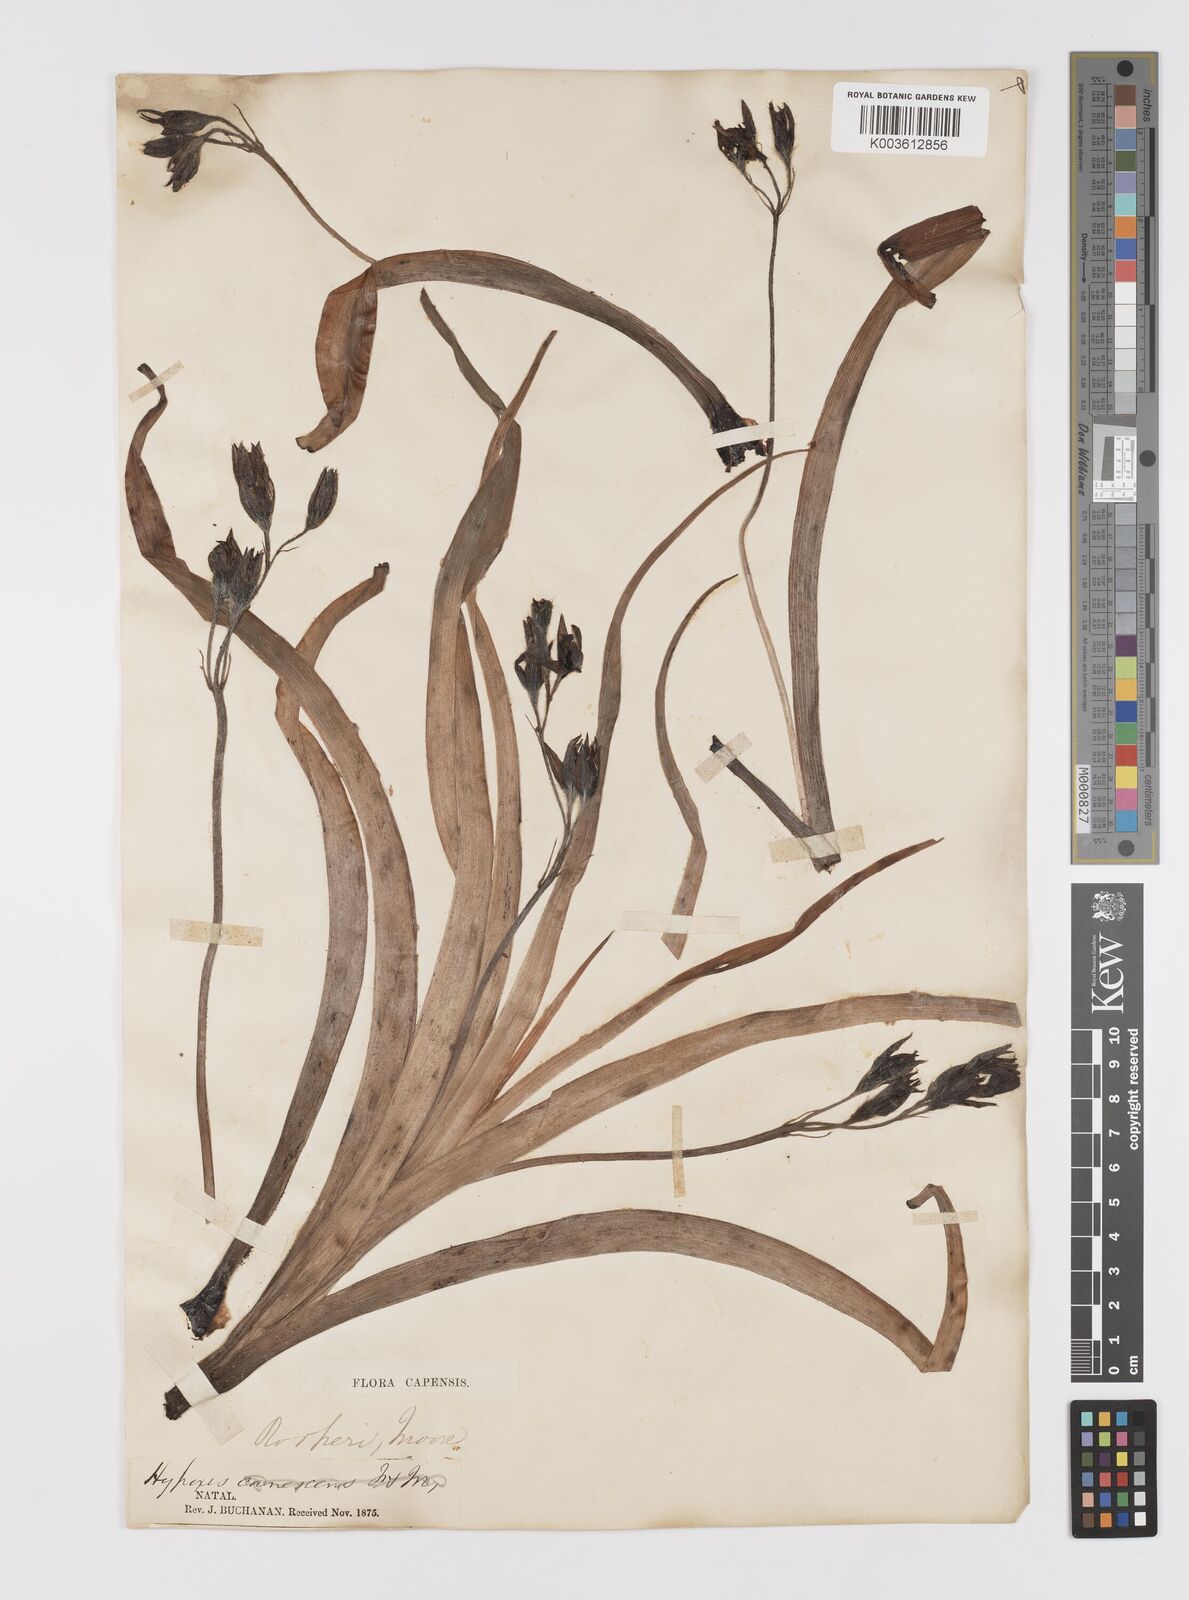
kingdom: Plantae
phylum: Tracheophyta
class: Liliopsida
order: Asparagales
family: Hypoxidaceae
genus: Hypoxis
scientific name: Hypoxis hemerocallidea
